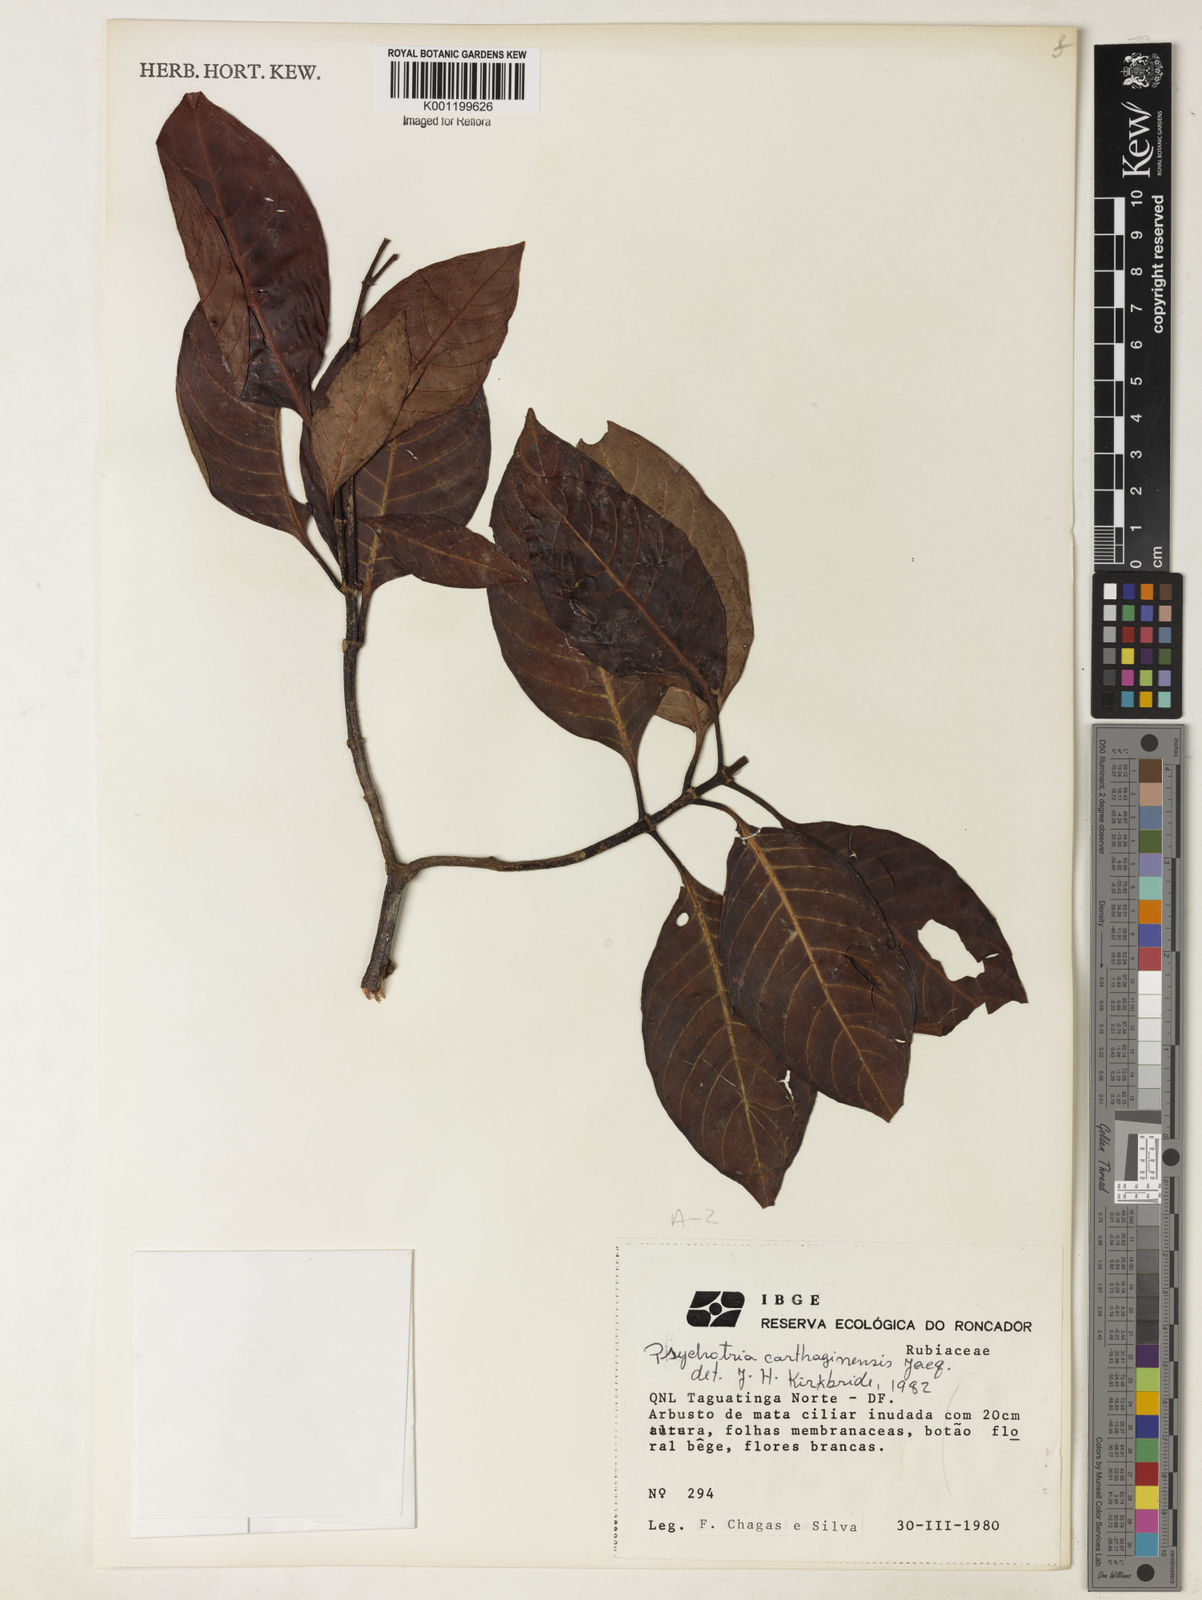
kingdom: Plantae
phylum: Tracheophyta
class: Magnoliopsida
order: Gentianales
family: Rubiaceae
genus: Psychotria
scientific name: Psychotria carthagenensis
